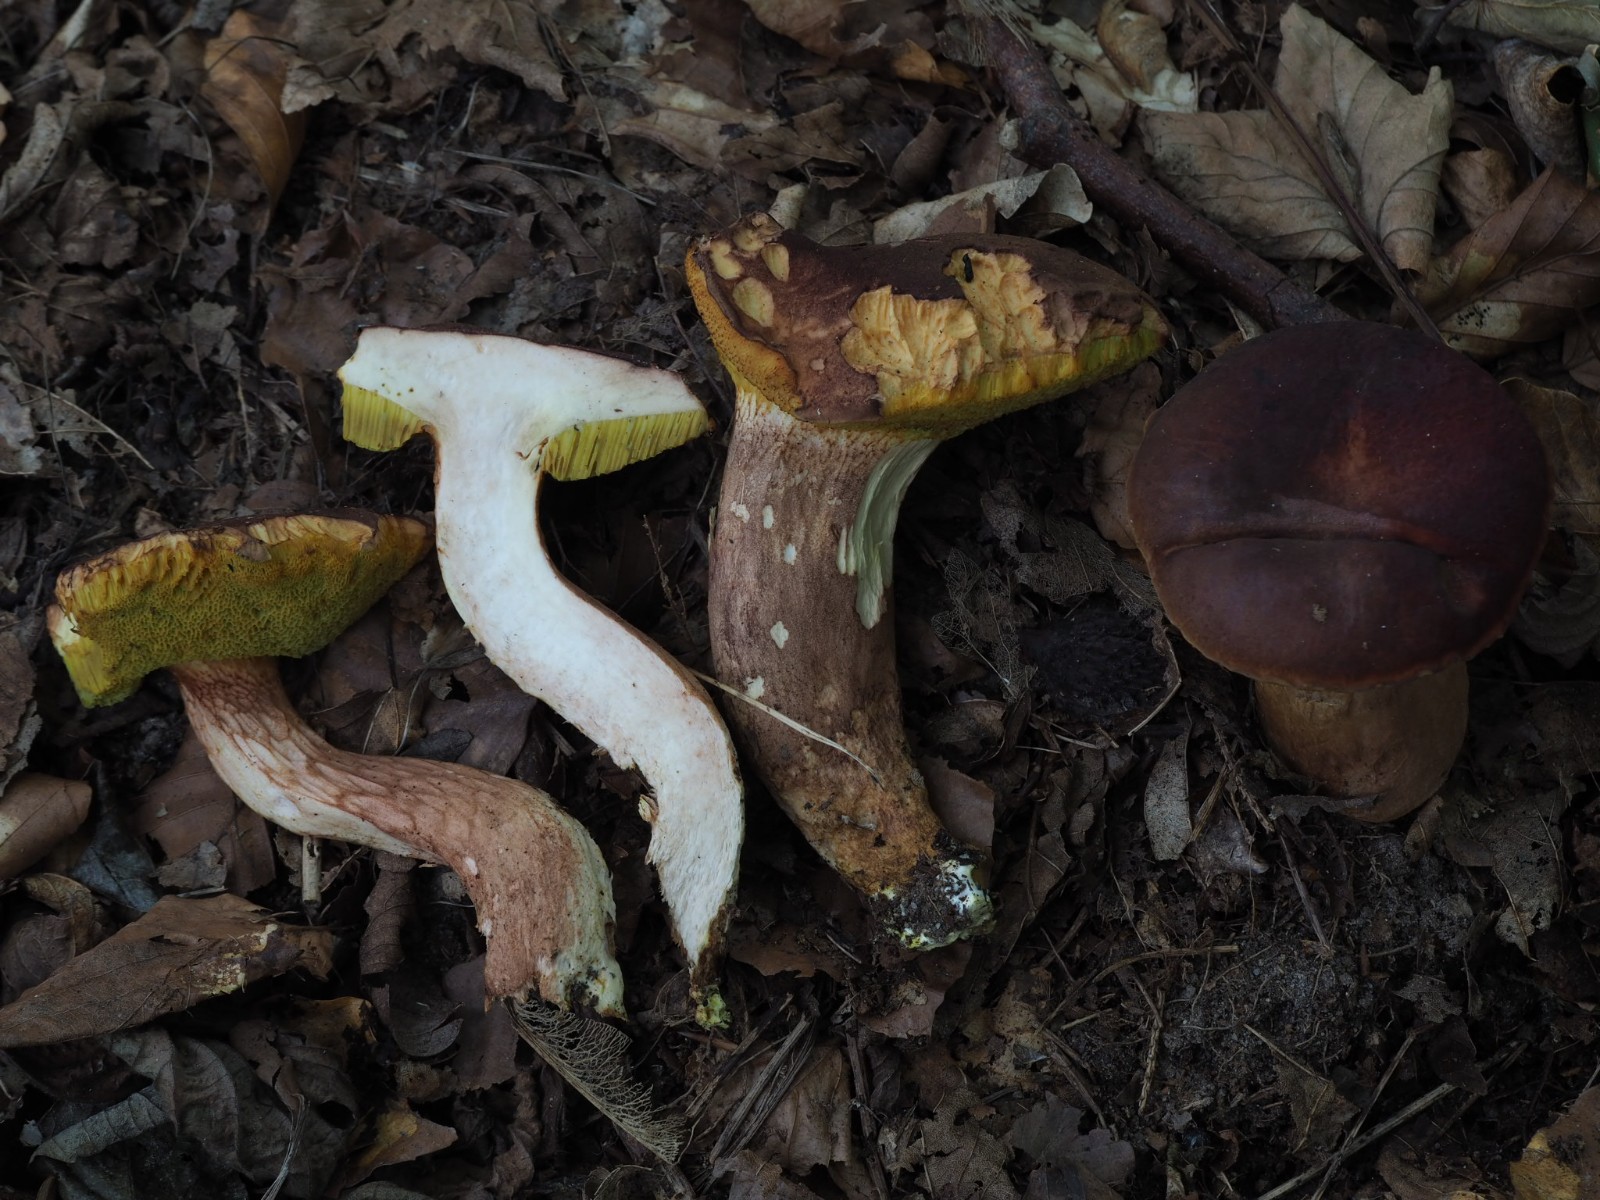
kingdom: Fungi
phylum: Basidiomycota
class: Agaricomycetes
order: Boletales
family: Boletaceae
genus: Xerocomus
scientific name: Xerocomus silwoodensis
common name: mahognibrun rørhat
